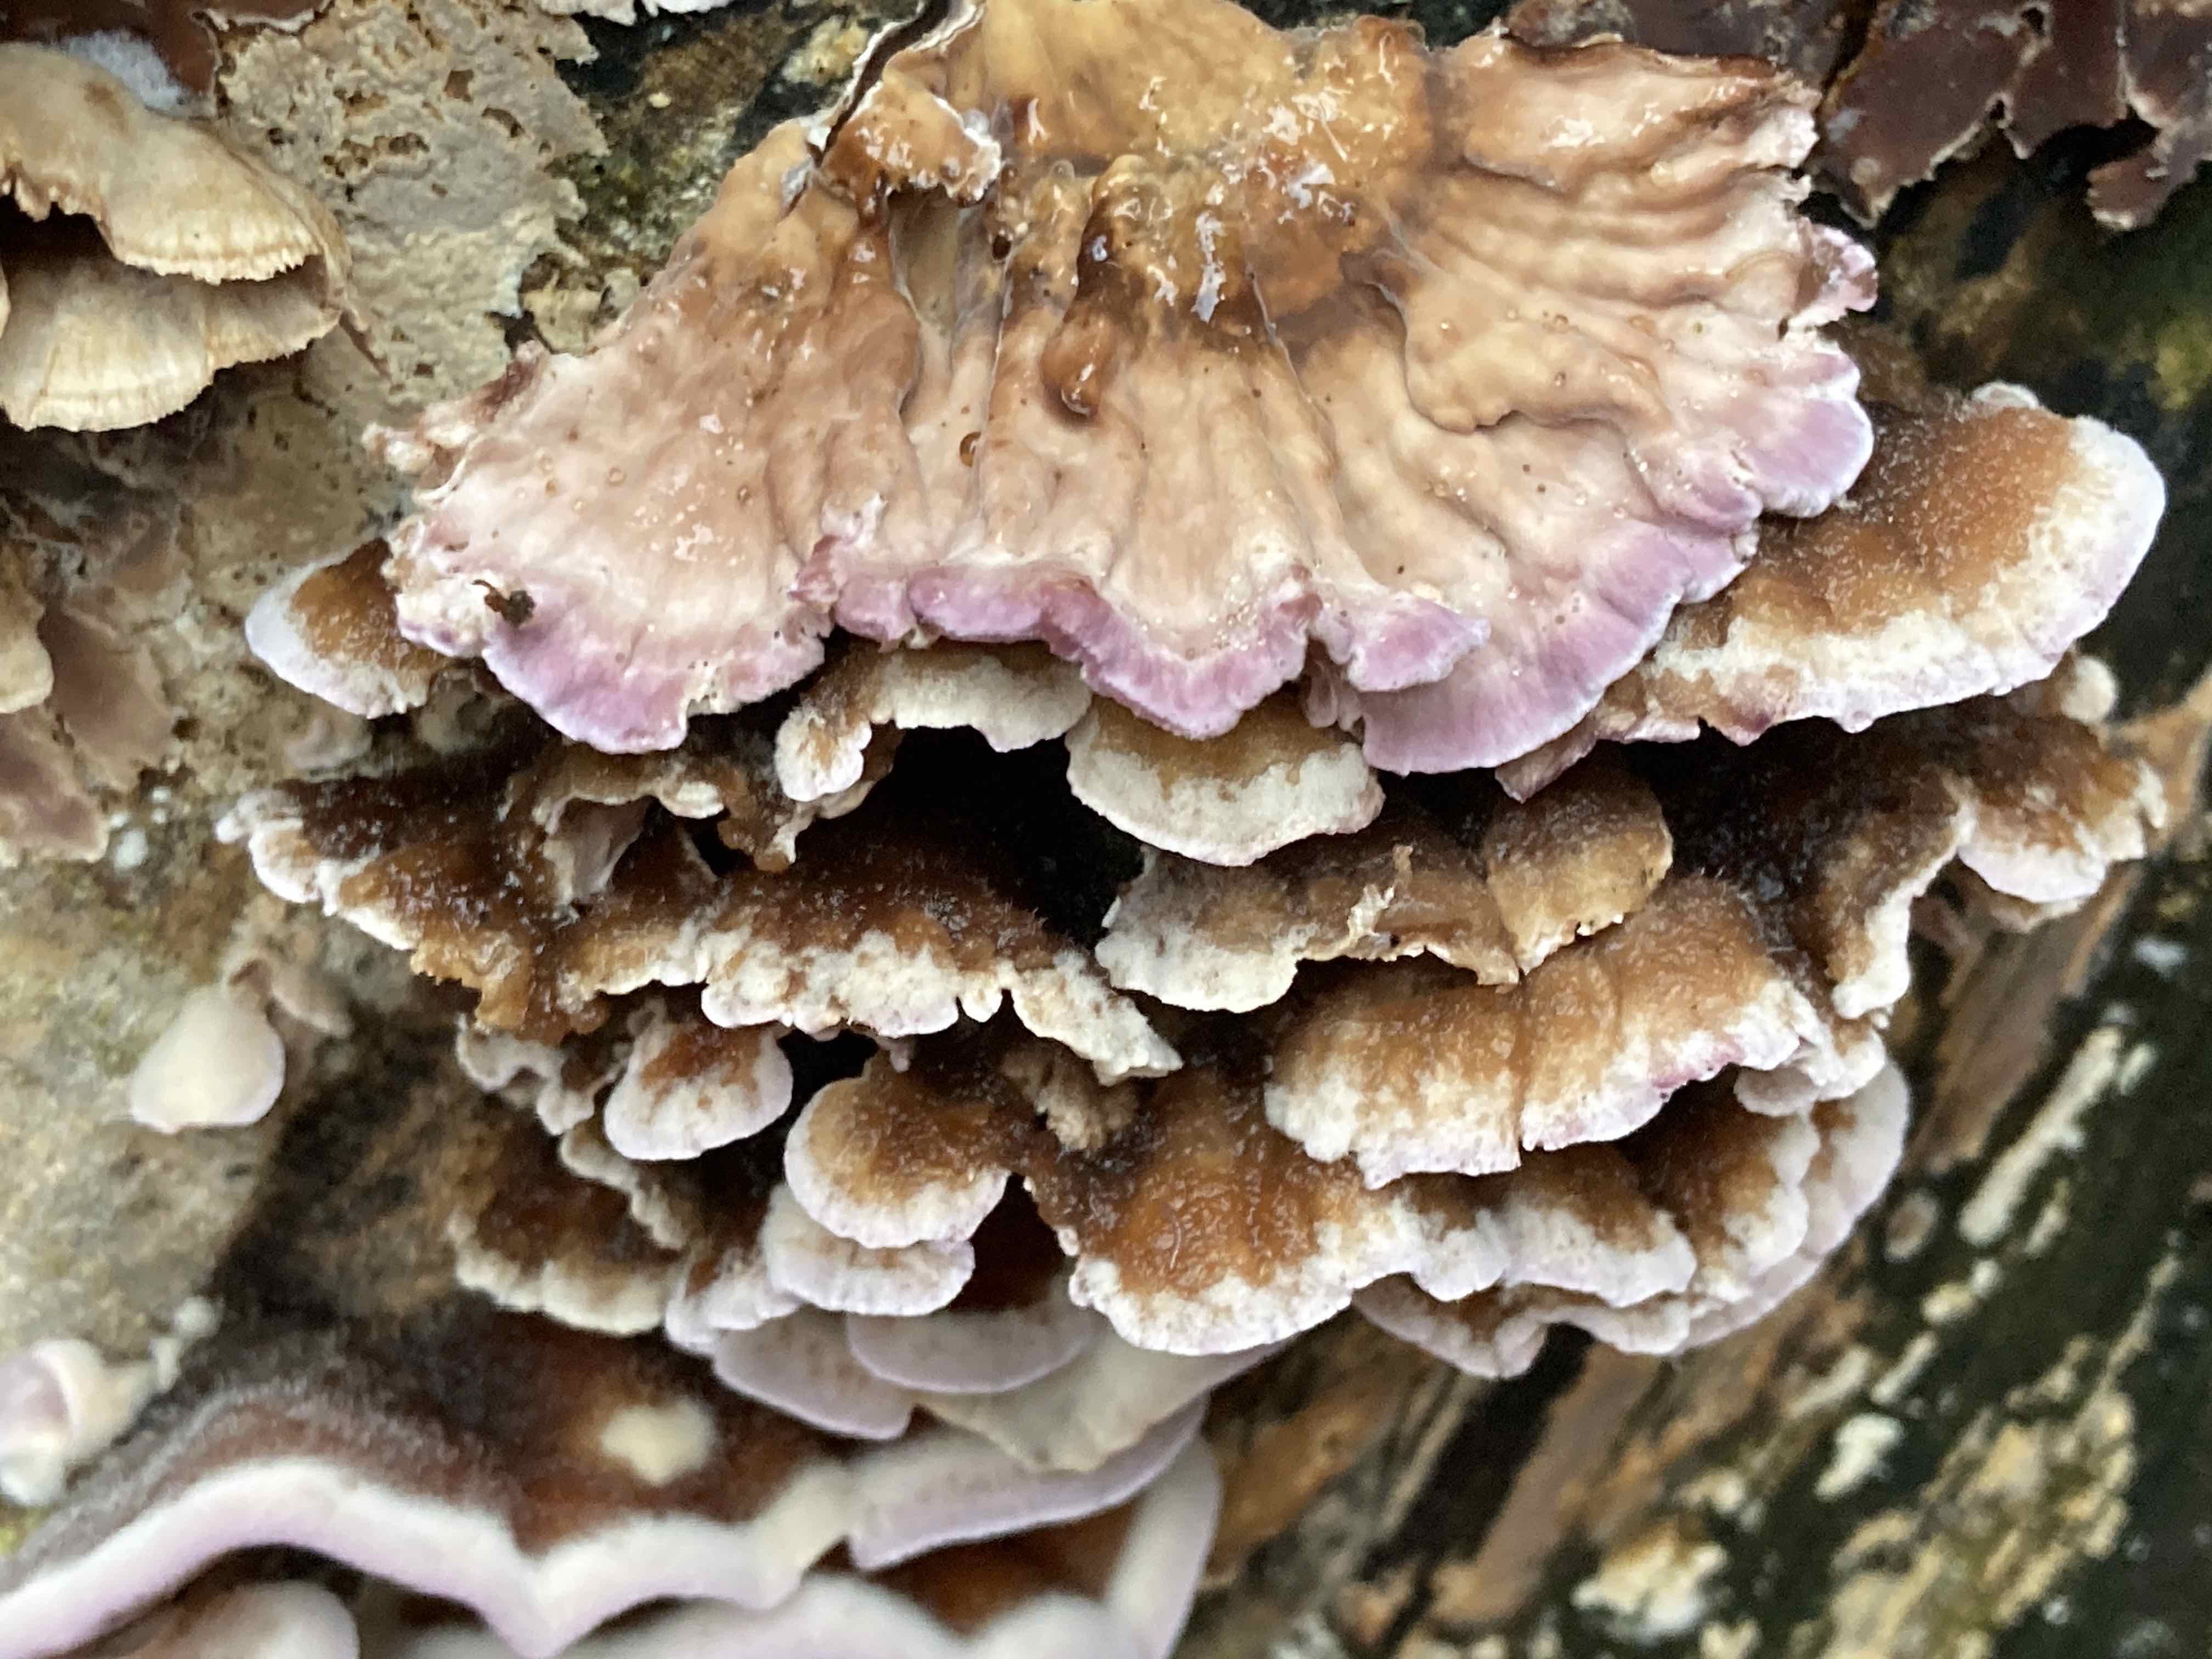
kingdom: Fungi
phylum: Basidiomycota
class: Agaricomycetes
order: Agaricales
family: Cyphellaceae
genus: Chondrostereum
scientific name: Chondrostereum purpureum
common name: purpurlædersvamp
